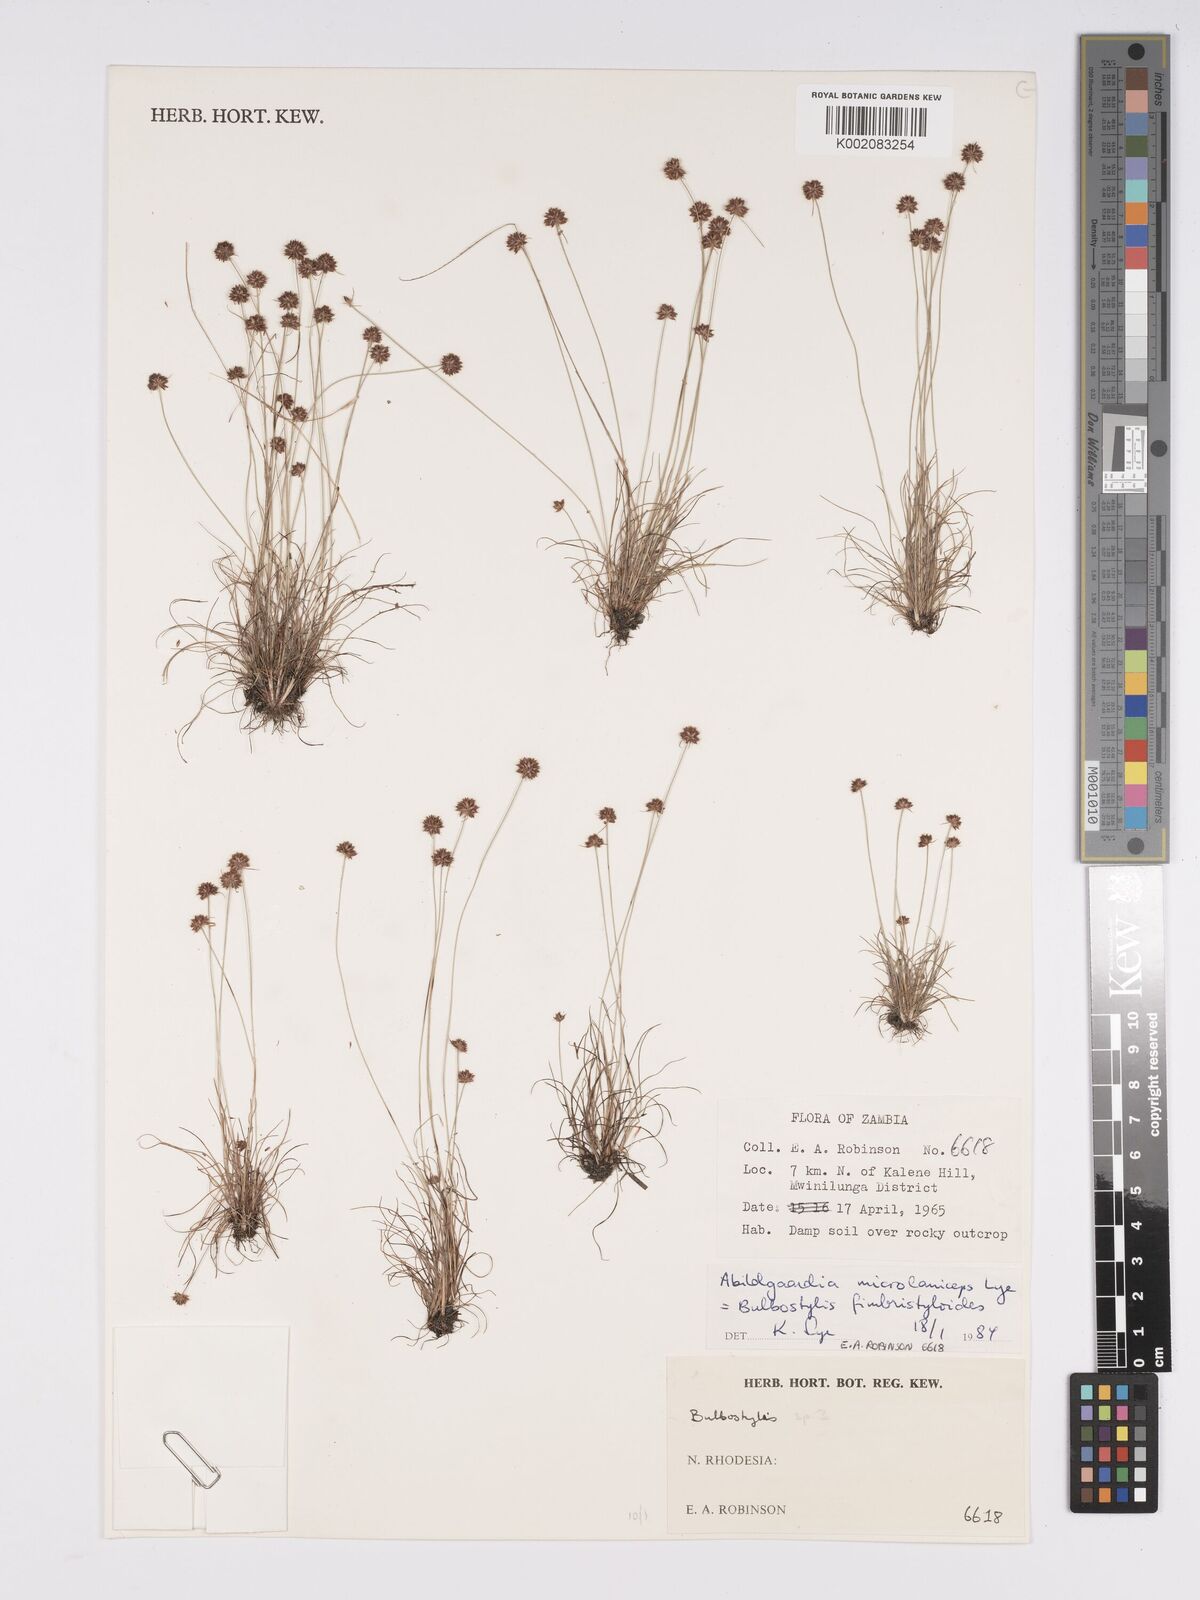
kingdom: Plantae
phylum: Tracheophyta
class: Liliopsida
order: Poales
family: Cyperaceae
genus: Bulbostylis
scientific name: Bulbostylis fimbristyloides
